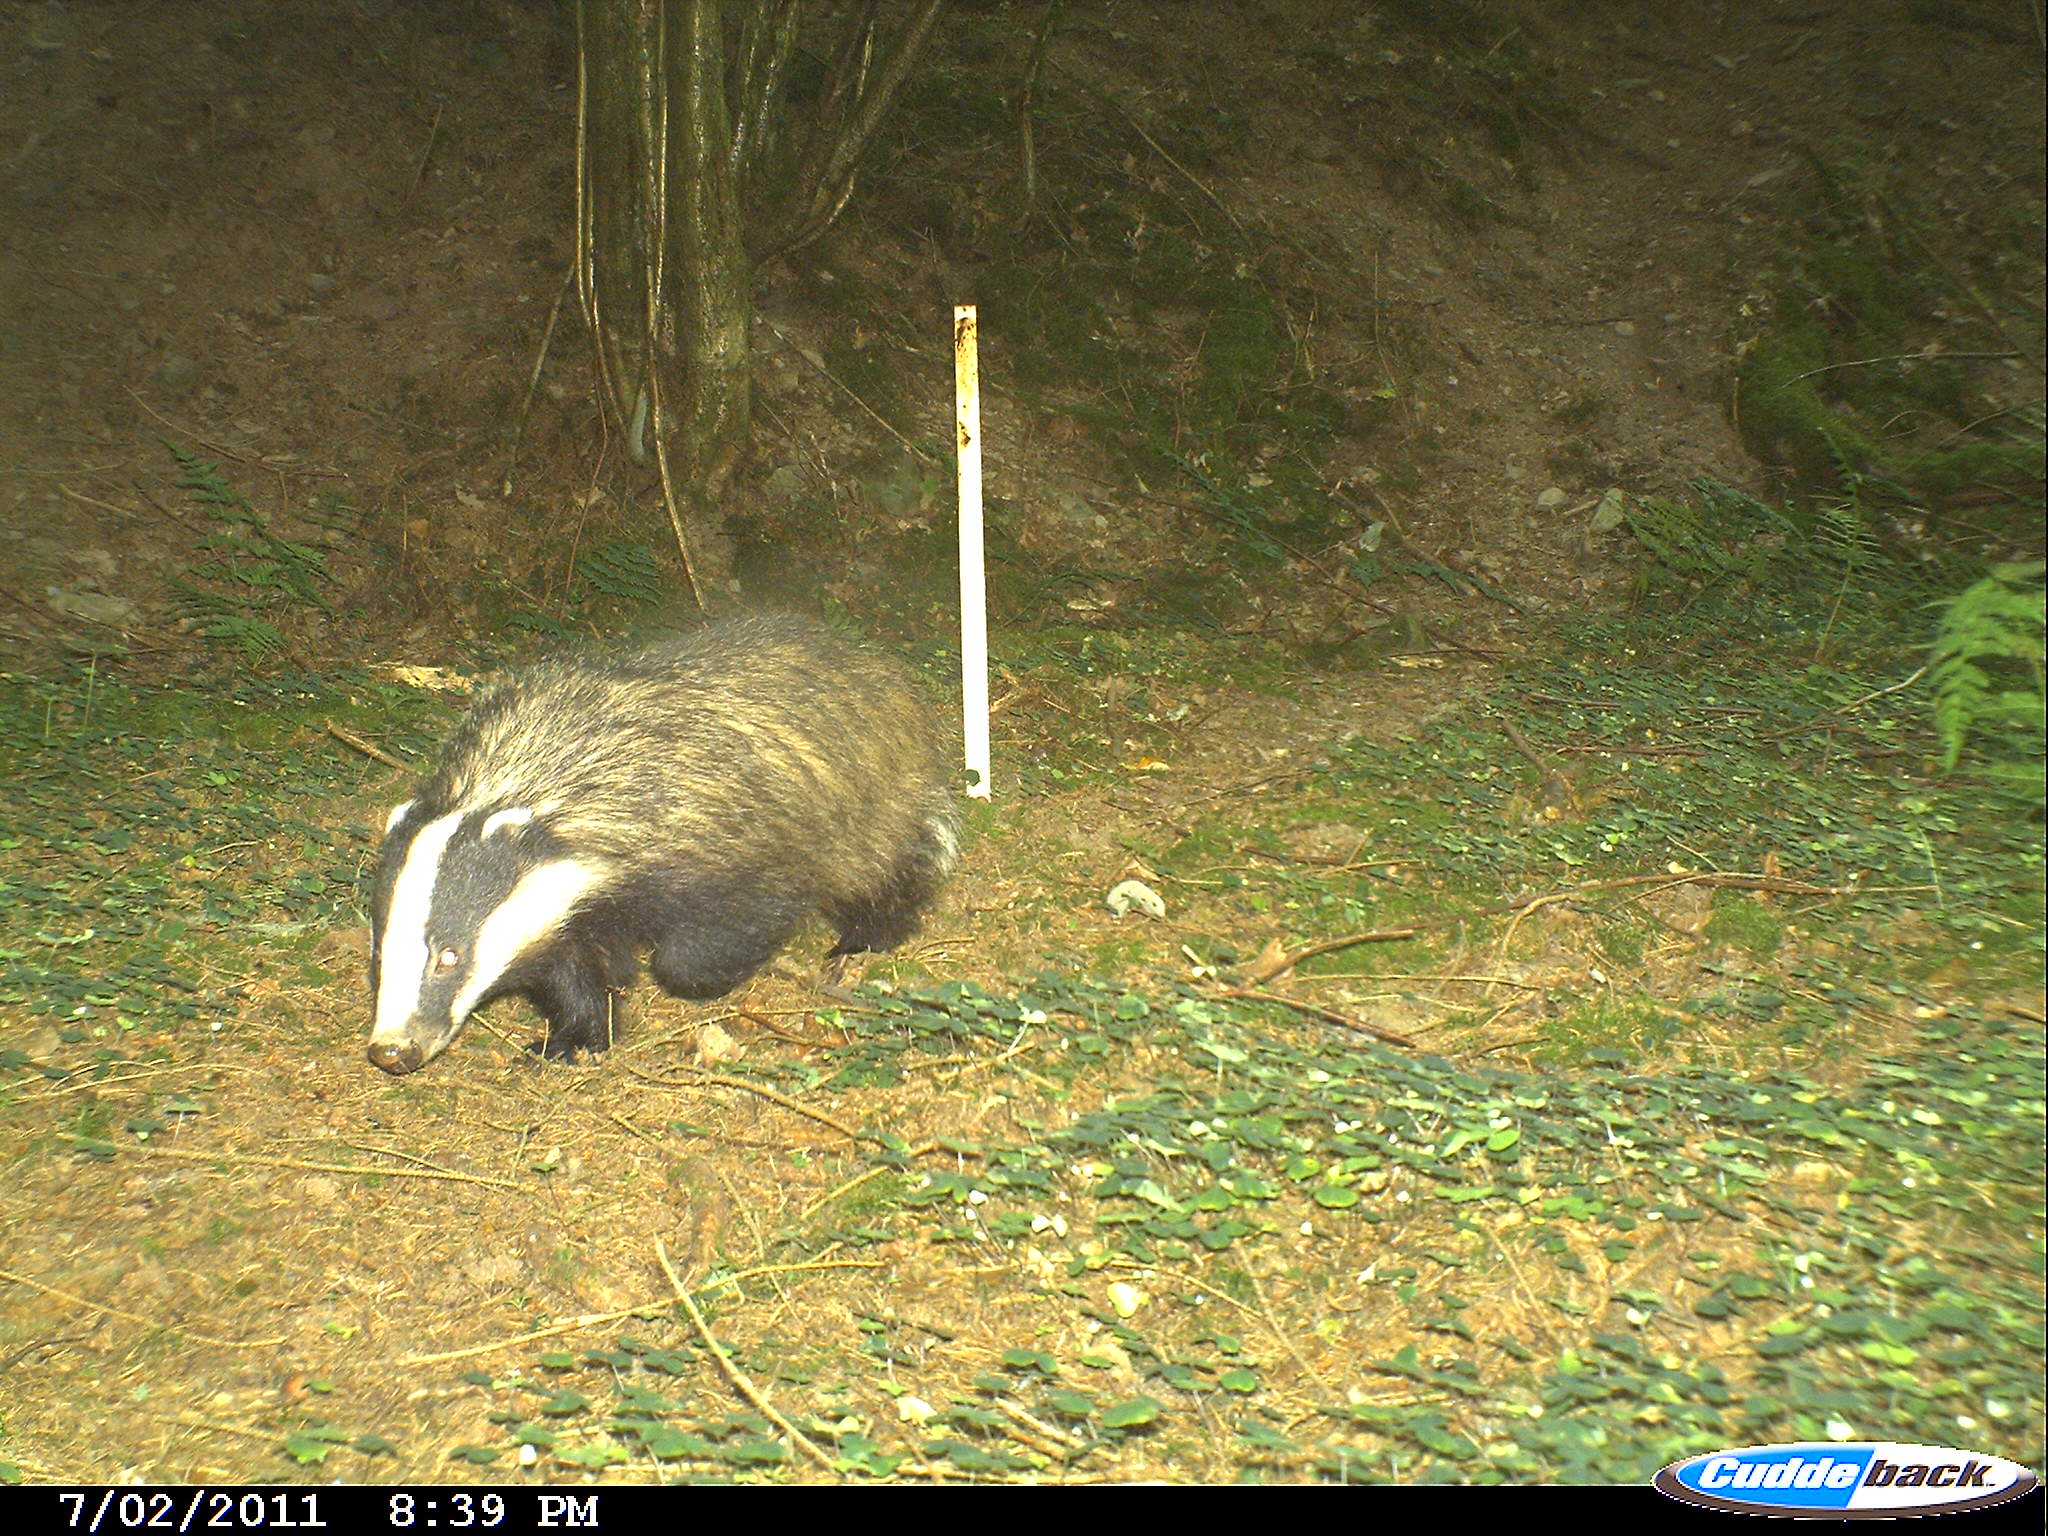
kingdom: Animalia
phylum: Chordata
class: Mammalia
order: Carnivora
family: Mustelidae
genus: Meles
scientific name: Meles meles
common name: Eurasian badger
